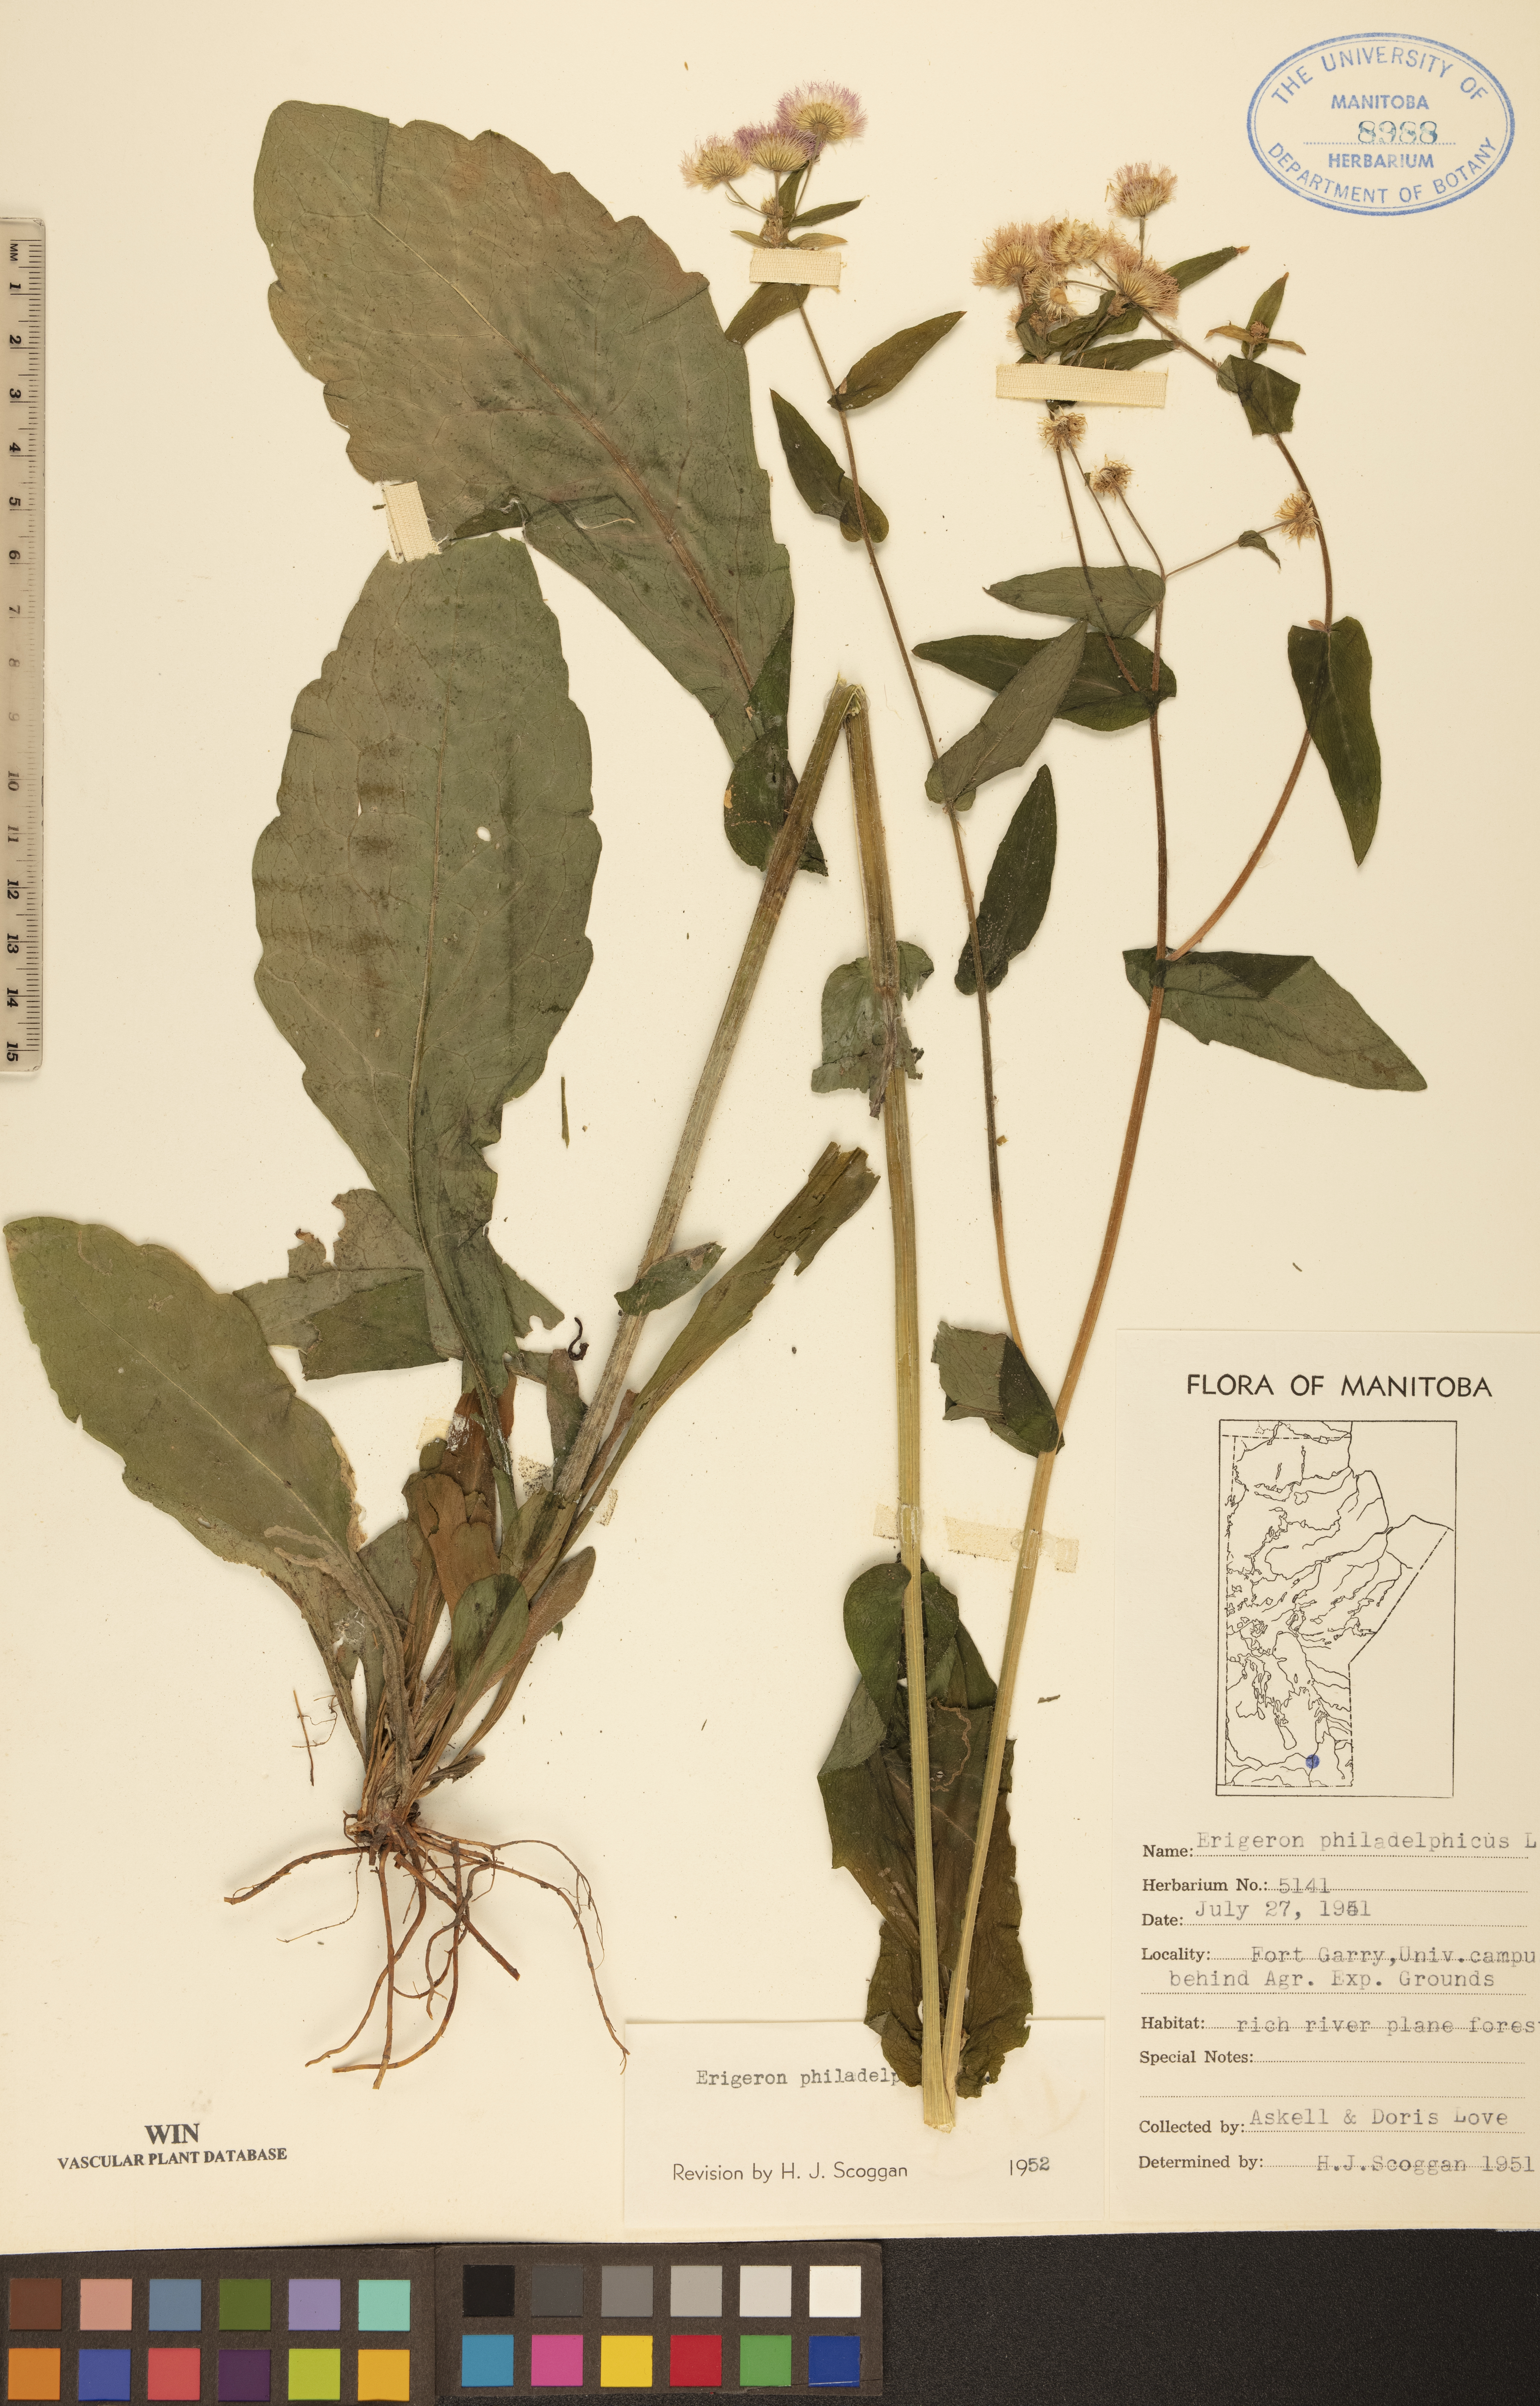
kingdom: Plantae
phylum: Tracheophyta
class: Magnoliopsida
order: Asterales
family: Asteraceae
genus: Erigeron
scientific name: Erigeron philadelphicus
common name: Robin's-plantain
